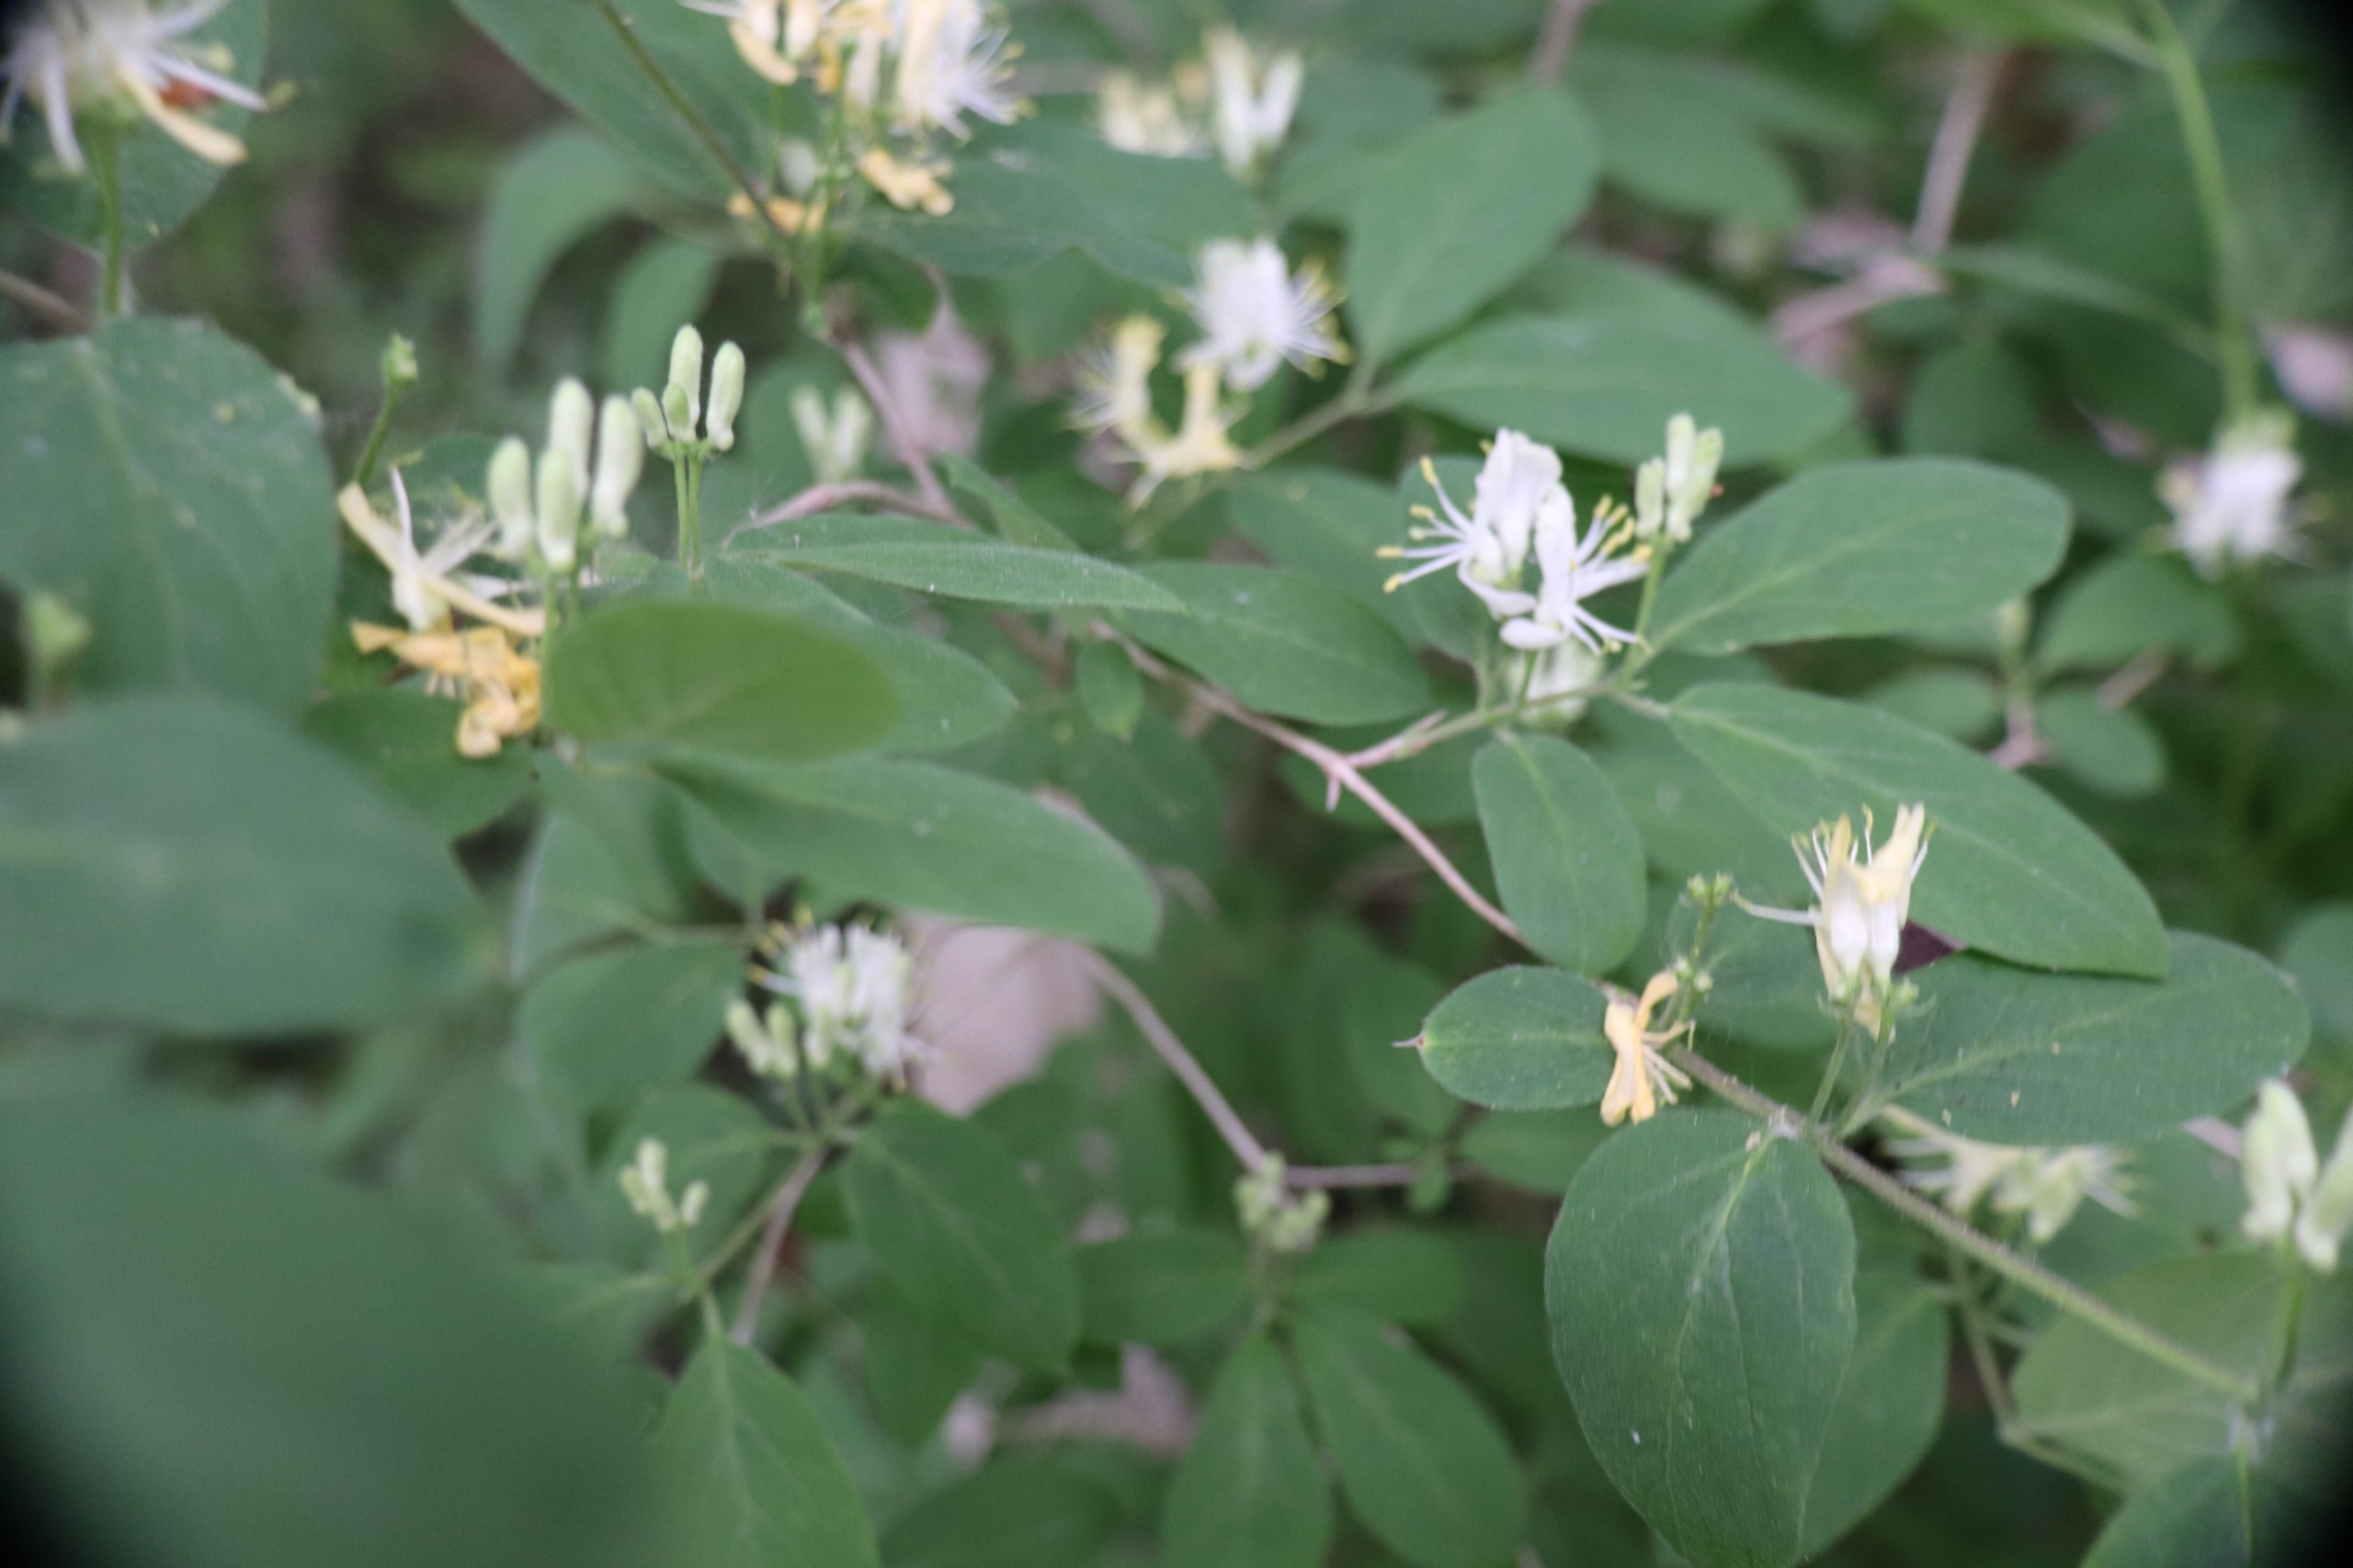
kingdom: Plantae
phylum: Tracheophyta
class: Magnoliopsida
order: Dipsacales
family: Caprifoliaceae
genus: Lonicera
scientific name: Lonicera xylosteum
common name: Dunet gedeblad
